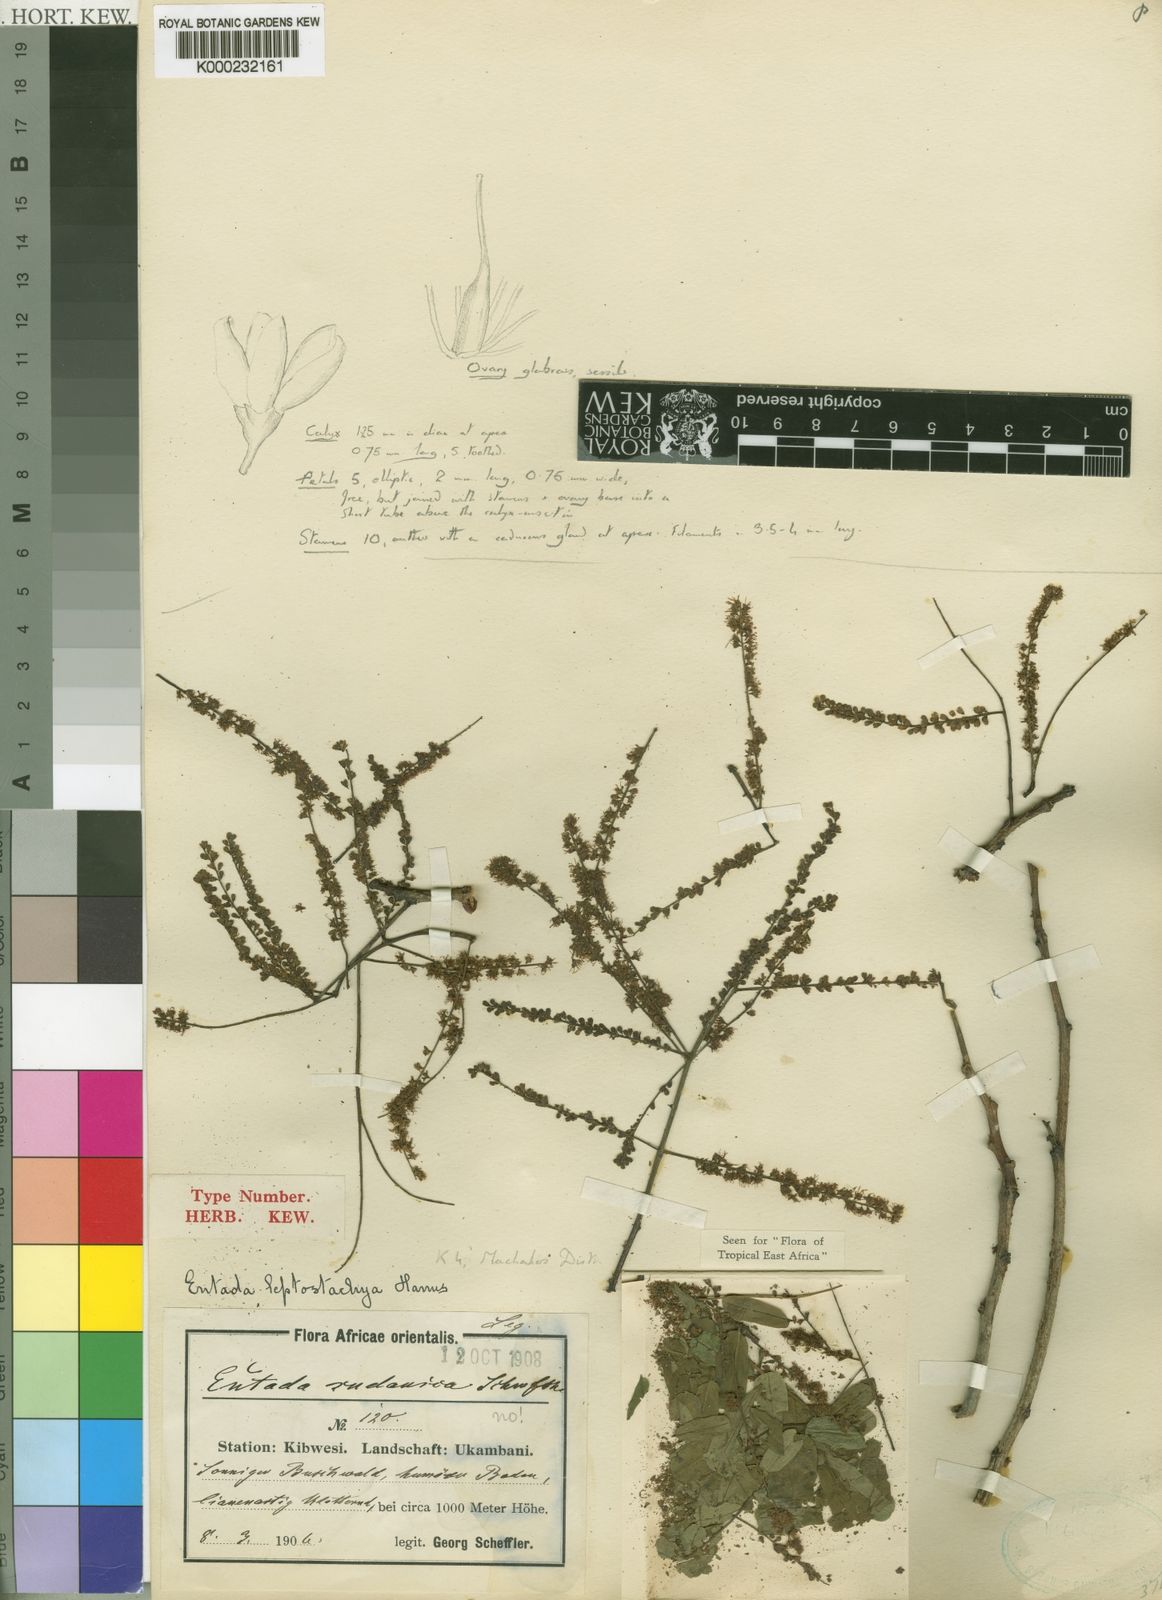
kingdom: Plantae
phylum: Tracheophyta
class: Magnoliopsida
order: Fabales
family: Fabaceae
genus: Entada
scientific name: Entada leptostachya
